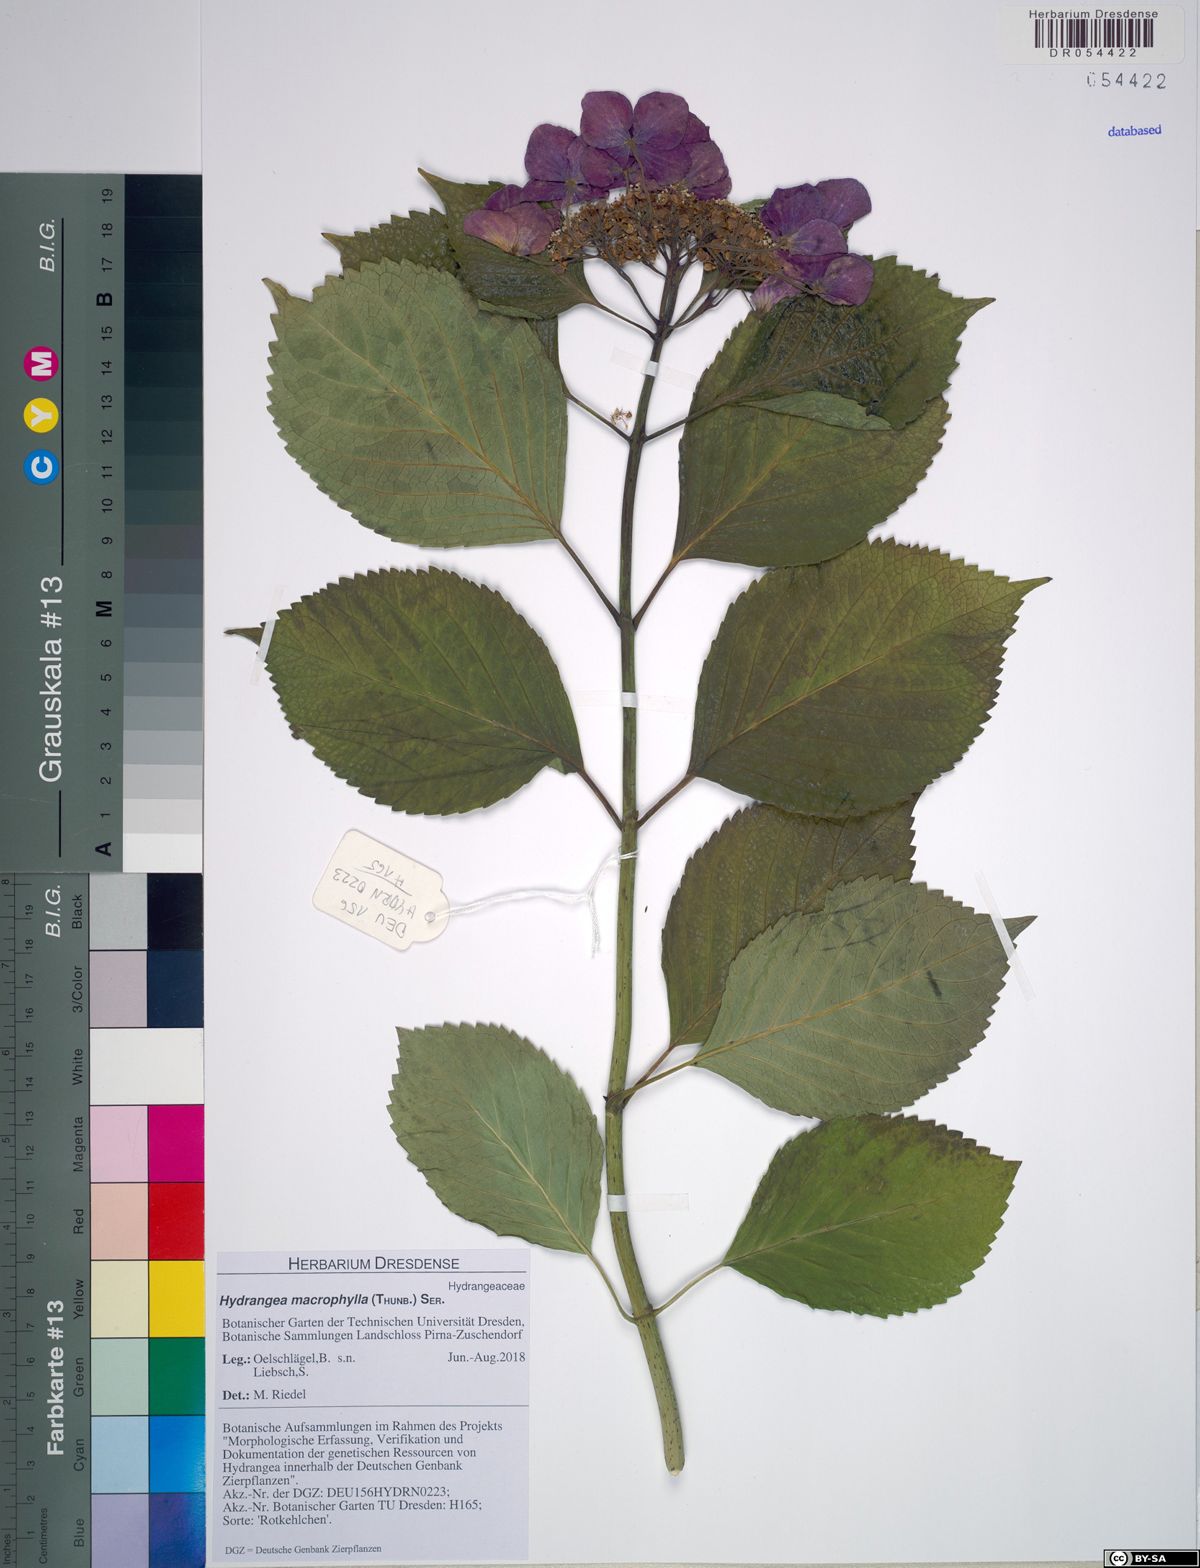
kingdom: Plantae
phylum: Tracheophyta
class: Magnoliopsida
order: Cornales
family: Hydrangeaceae
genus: Hydrangea
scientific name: Hydrangea macrophylla
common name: Hydrangea
